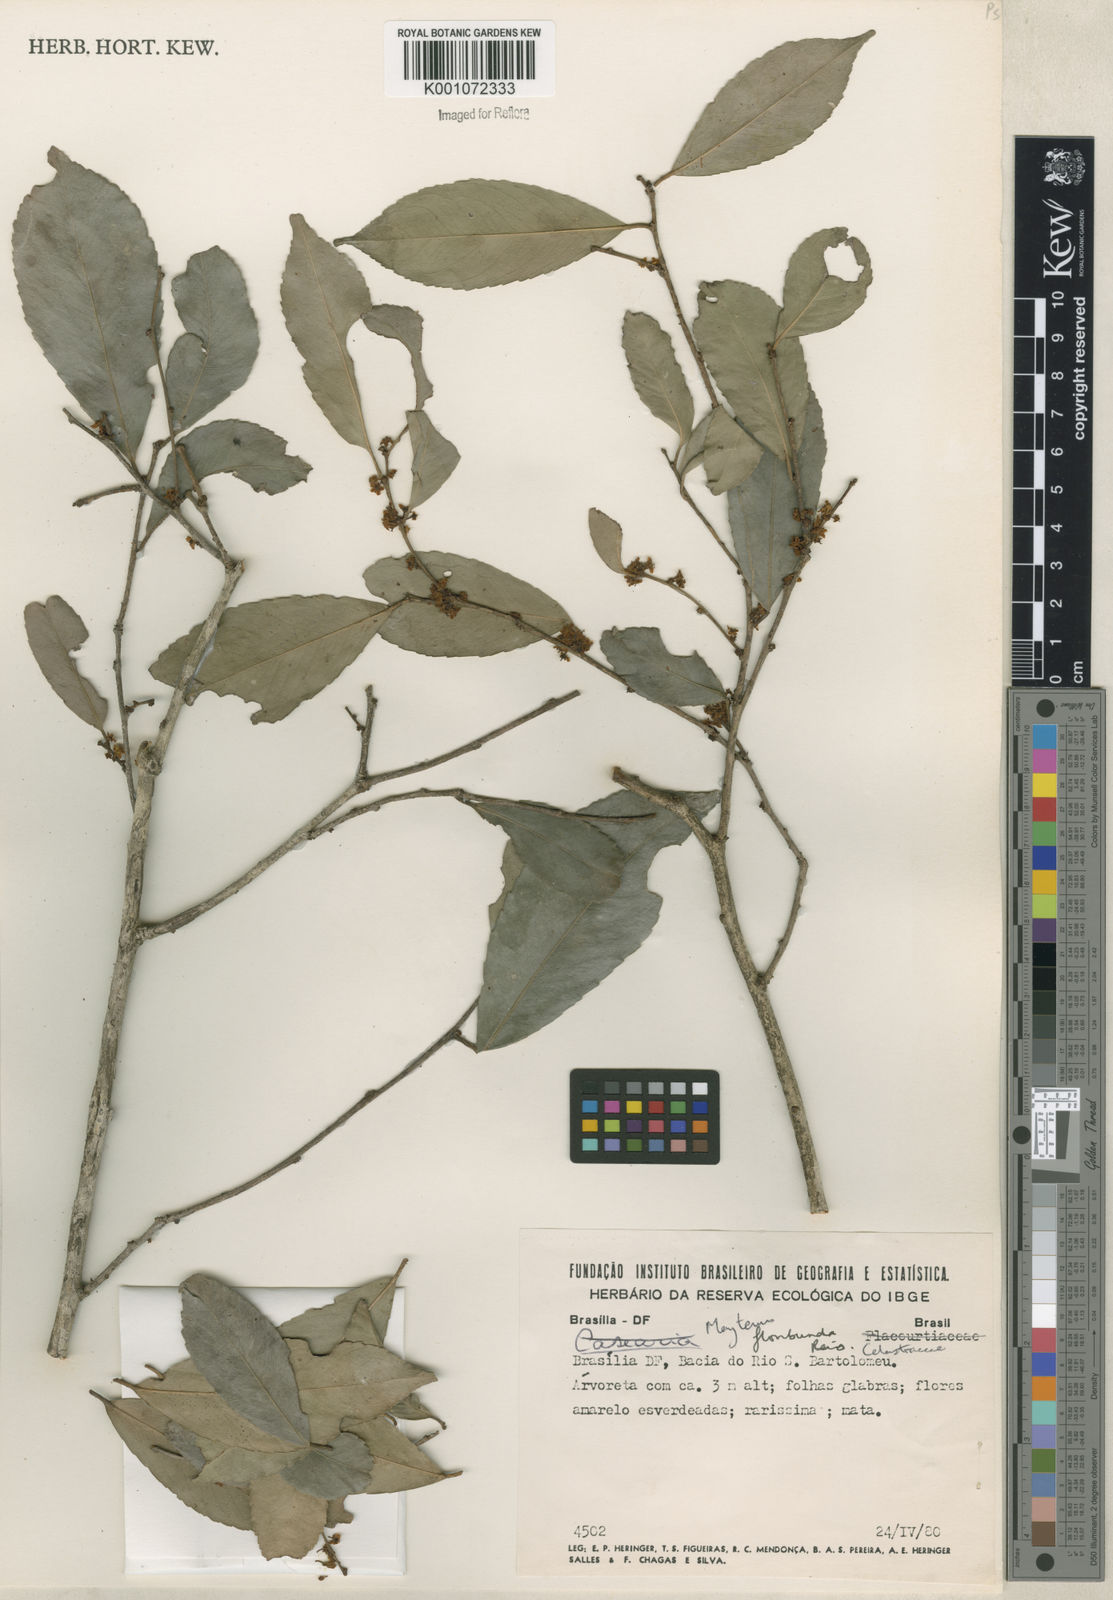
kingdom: Plantae
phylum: Tracheophyta
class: Magnoliopsida
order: Celastrales
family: Celastraceae
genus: Monteverdia
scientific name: Monteverdia floribunda
